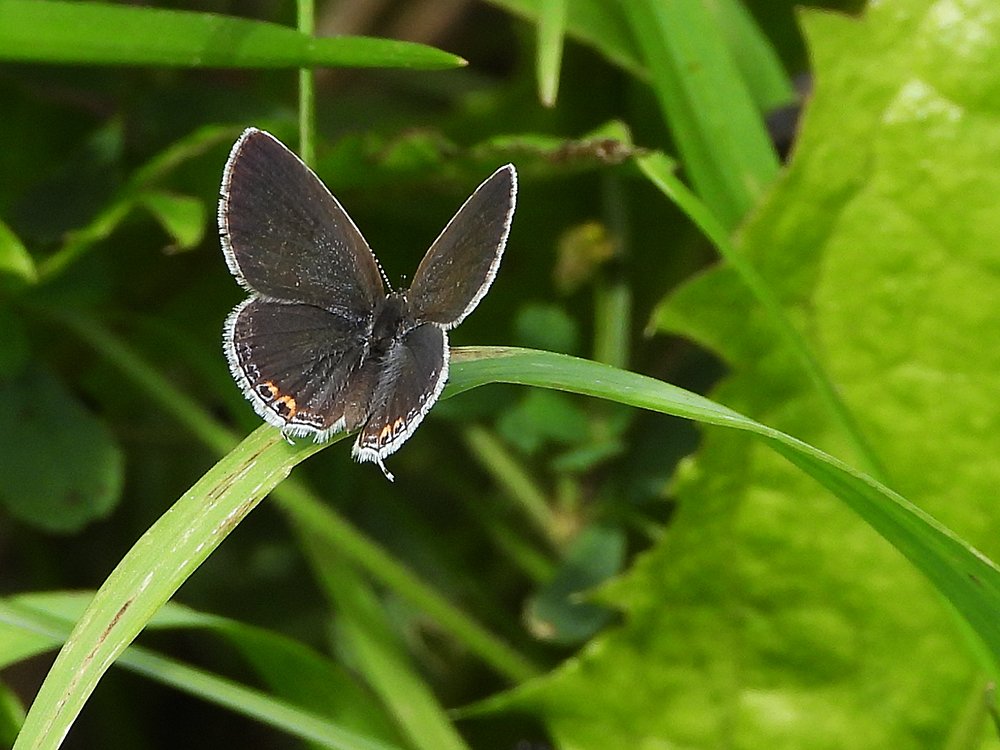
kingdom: Animalia
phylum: Arthropoda
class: Insecta
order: Lepidoptera
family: Lycaenidae
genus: Elkalyce
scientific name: Elkalyce comyntas
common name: Eastern Tailed-Blue
